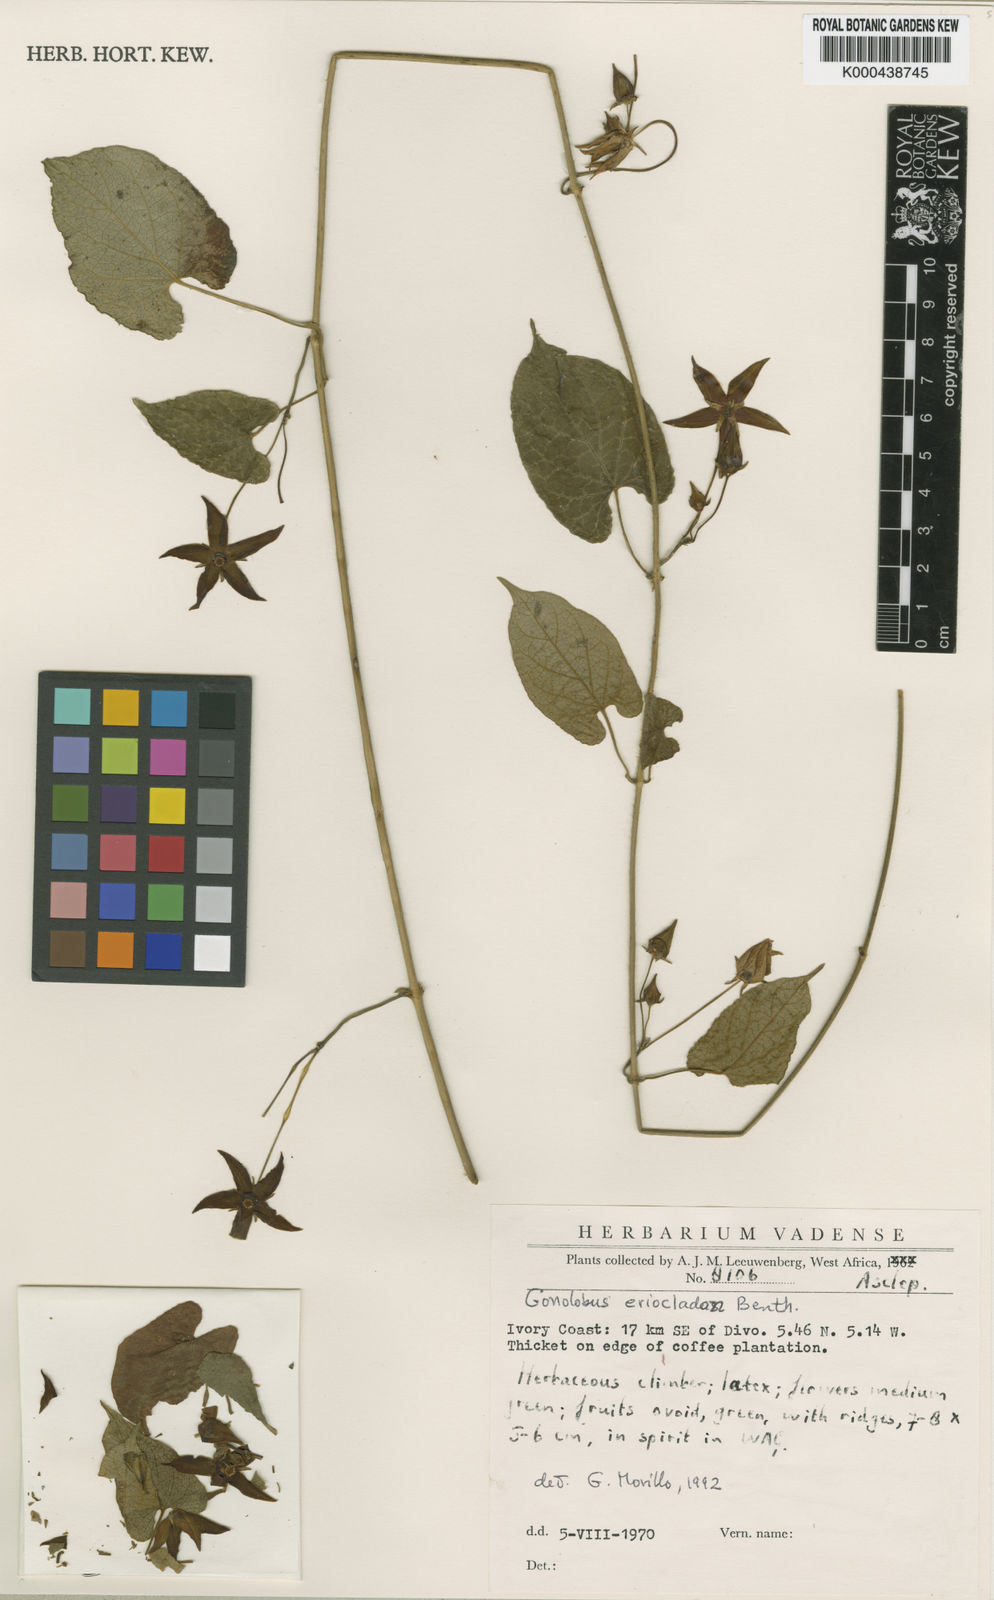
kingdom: Plantae
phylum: Tracheophyta
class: Magnoliopsida
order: Gentianales
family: Apocynaceae
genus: Gonolobus
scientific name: Gonolobus
